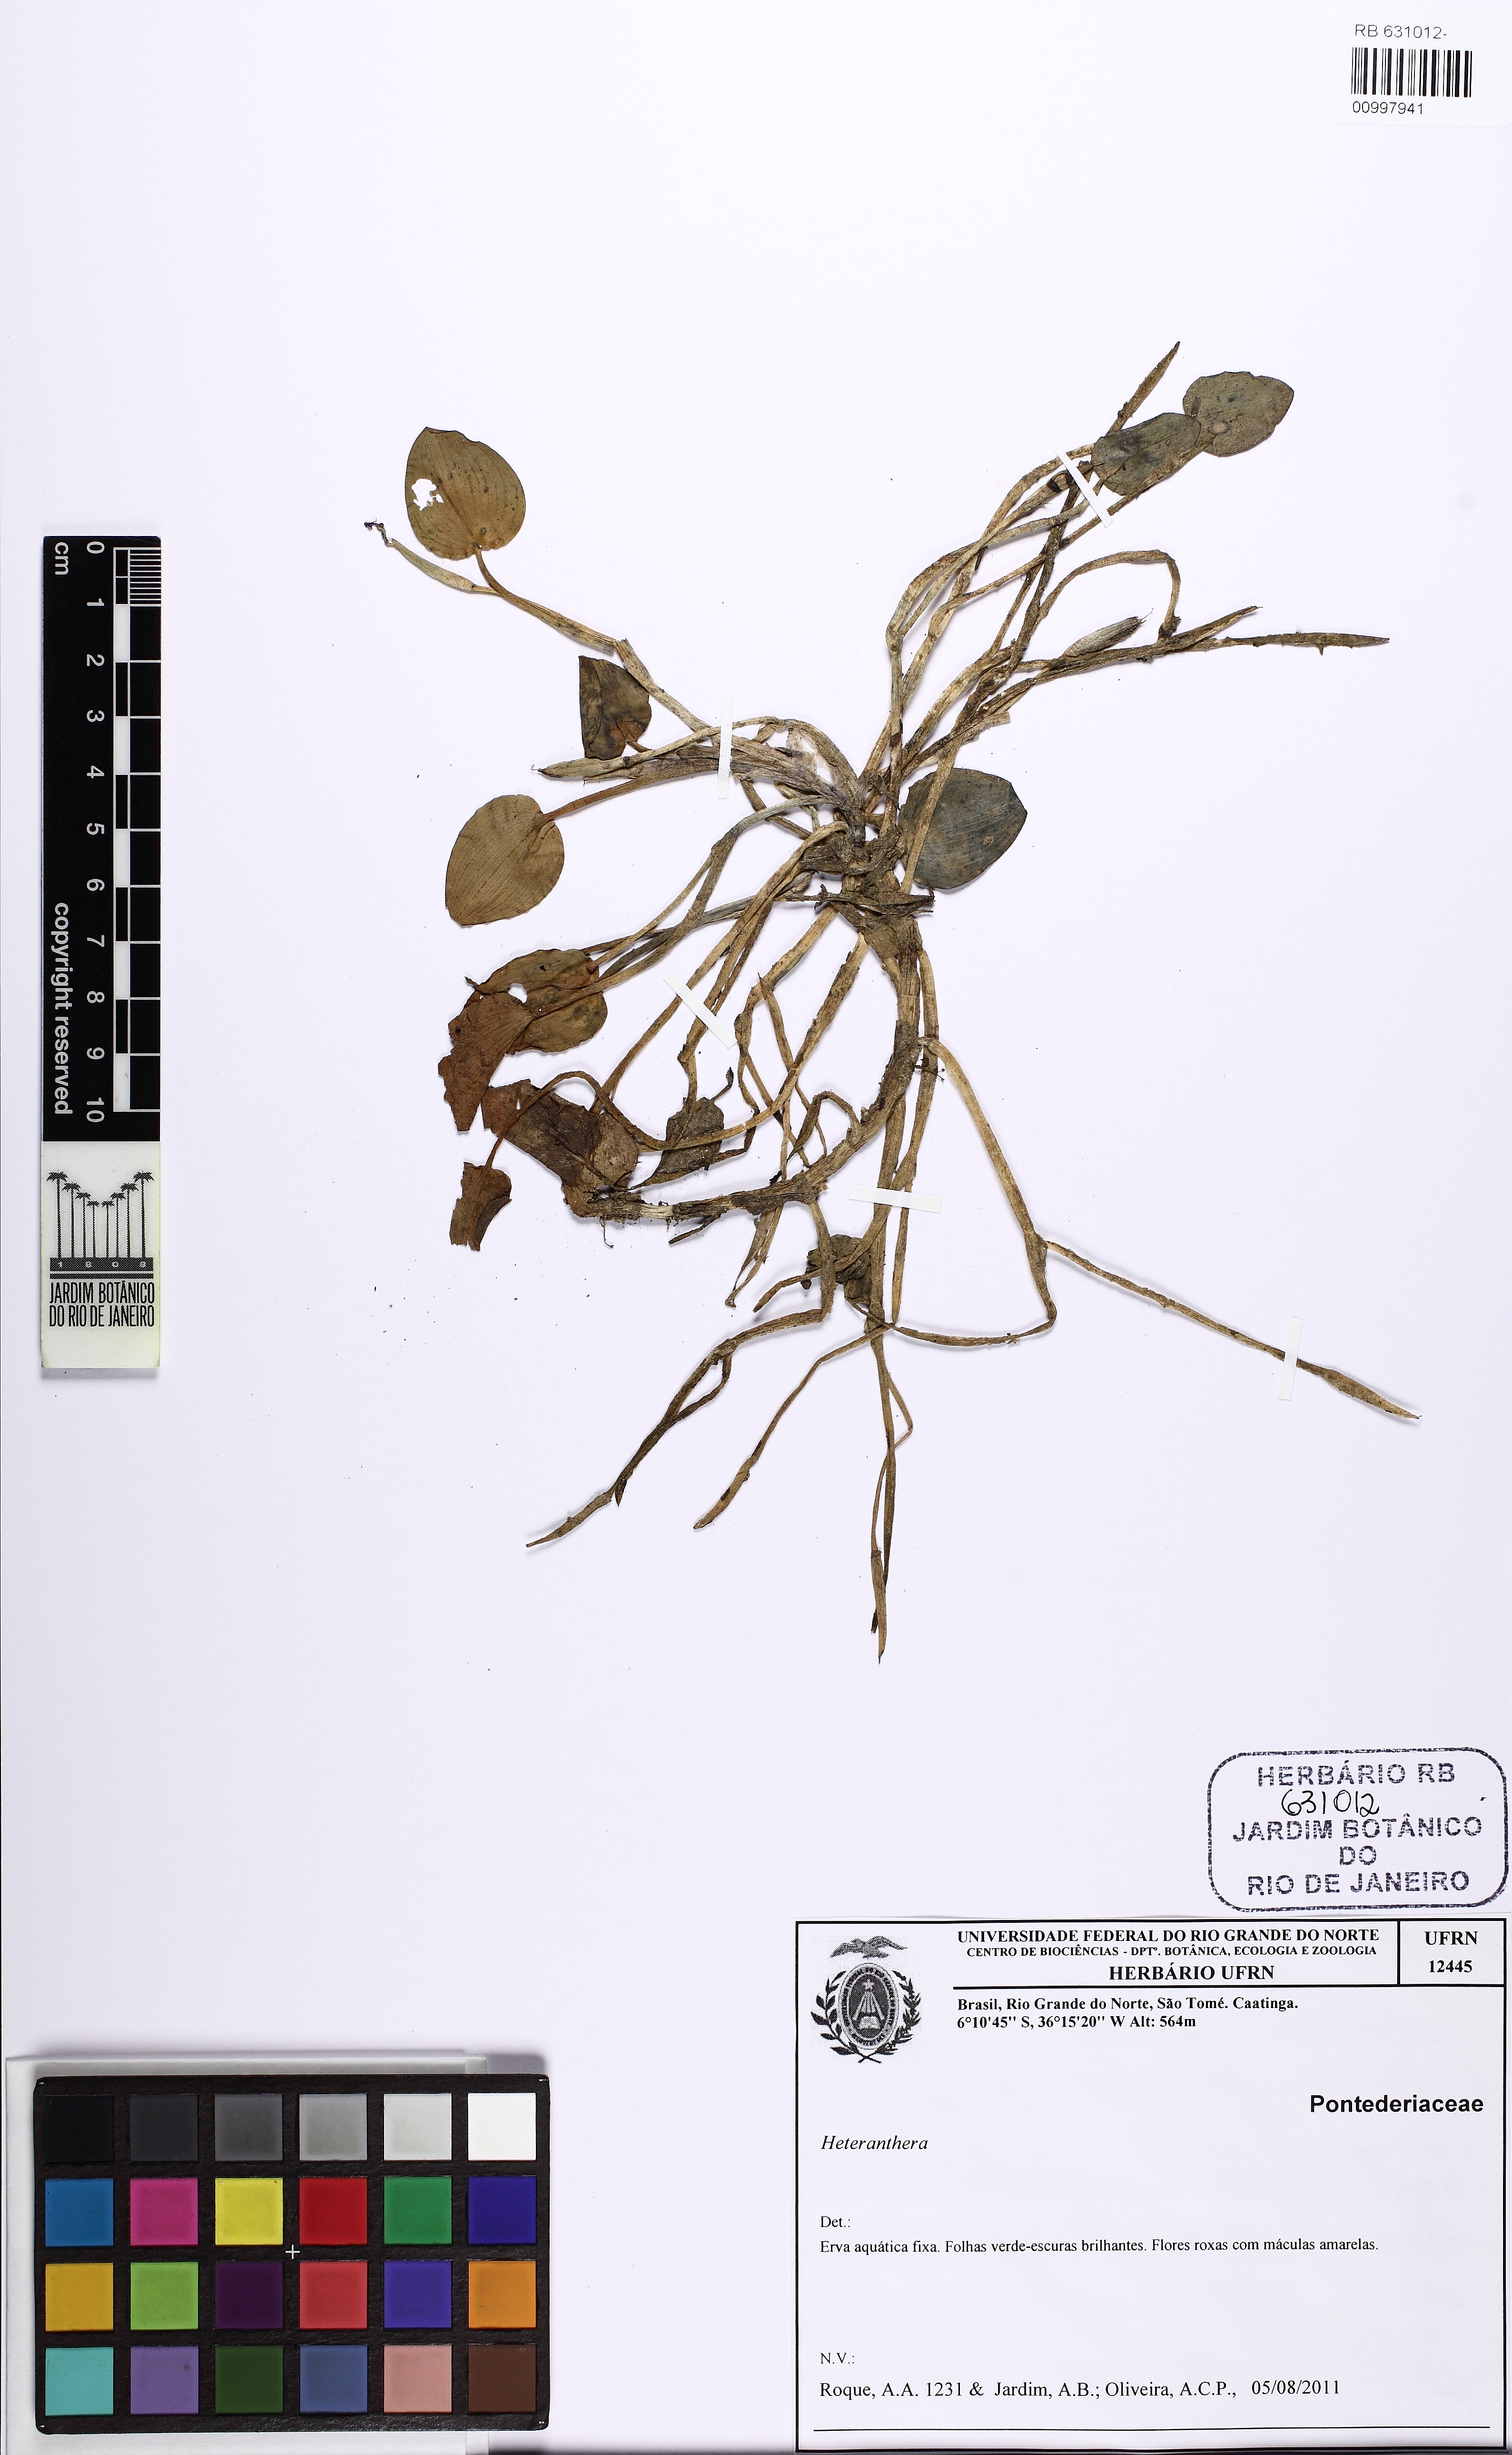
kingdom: Plantae
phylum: Tracheophyta
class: Liliopsida
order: Commelinales
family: Pontederiaceae
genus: Pontederia
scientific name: Pontederia rotundifolia
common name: Tropical pickerel-weed
